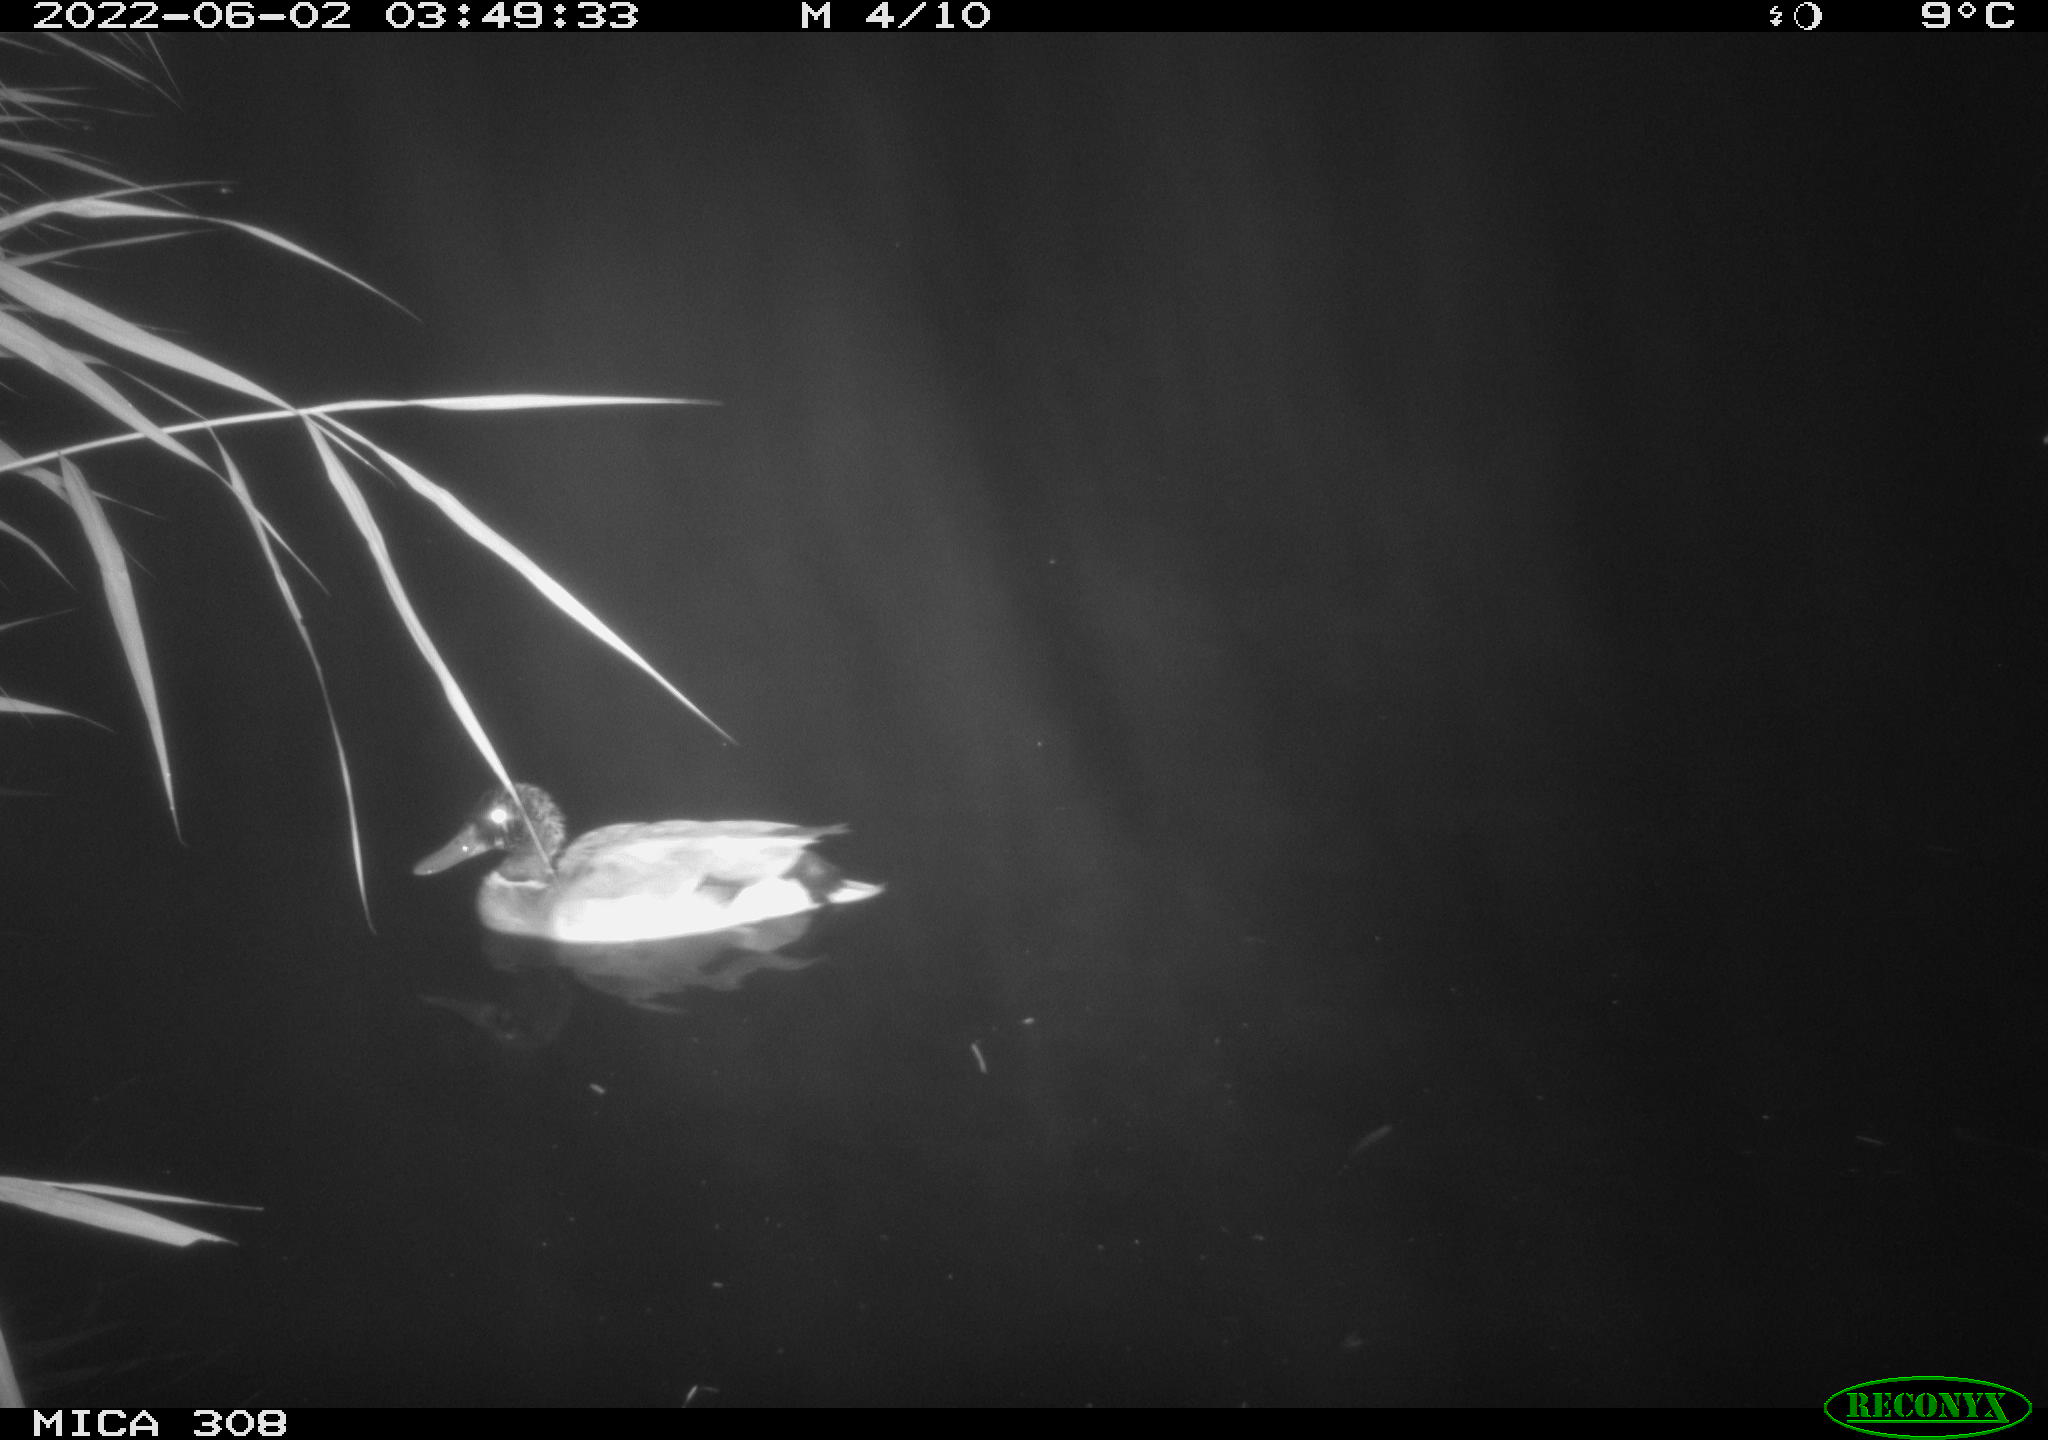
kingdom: Animalia
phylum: Chordata
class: Aves
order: Anseriformes
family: Anatidae
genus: Anas
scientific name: Anas platyrhynchos
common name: Mallard
